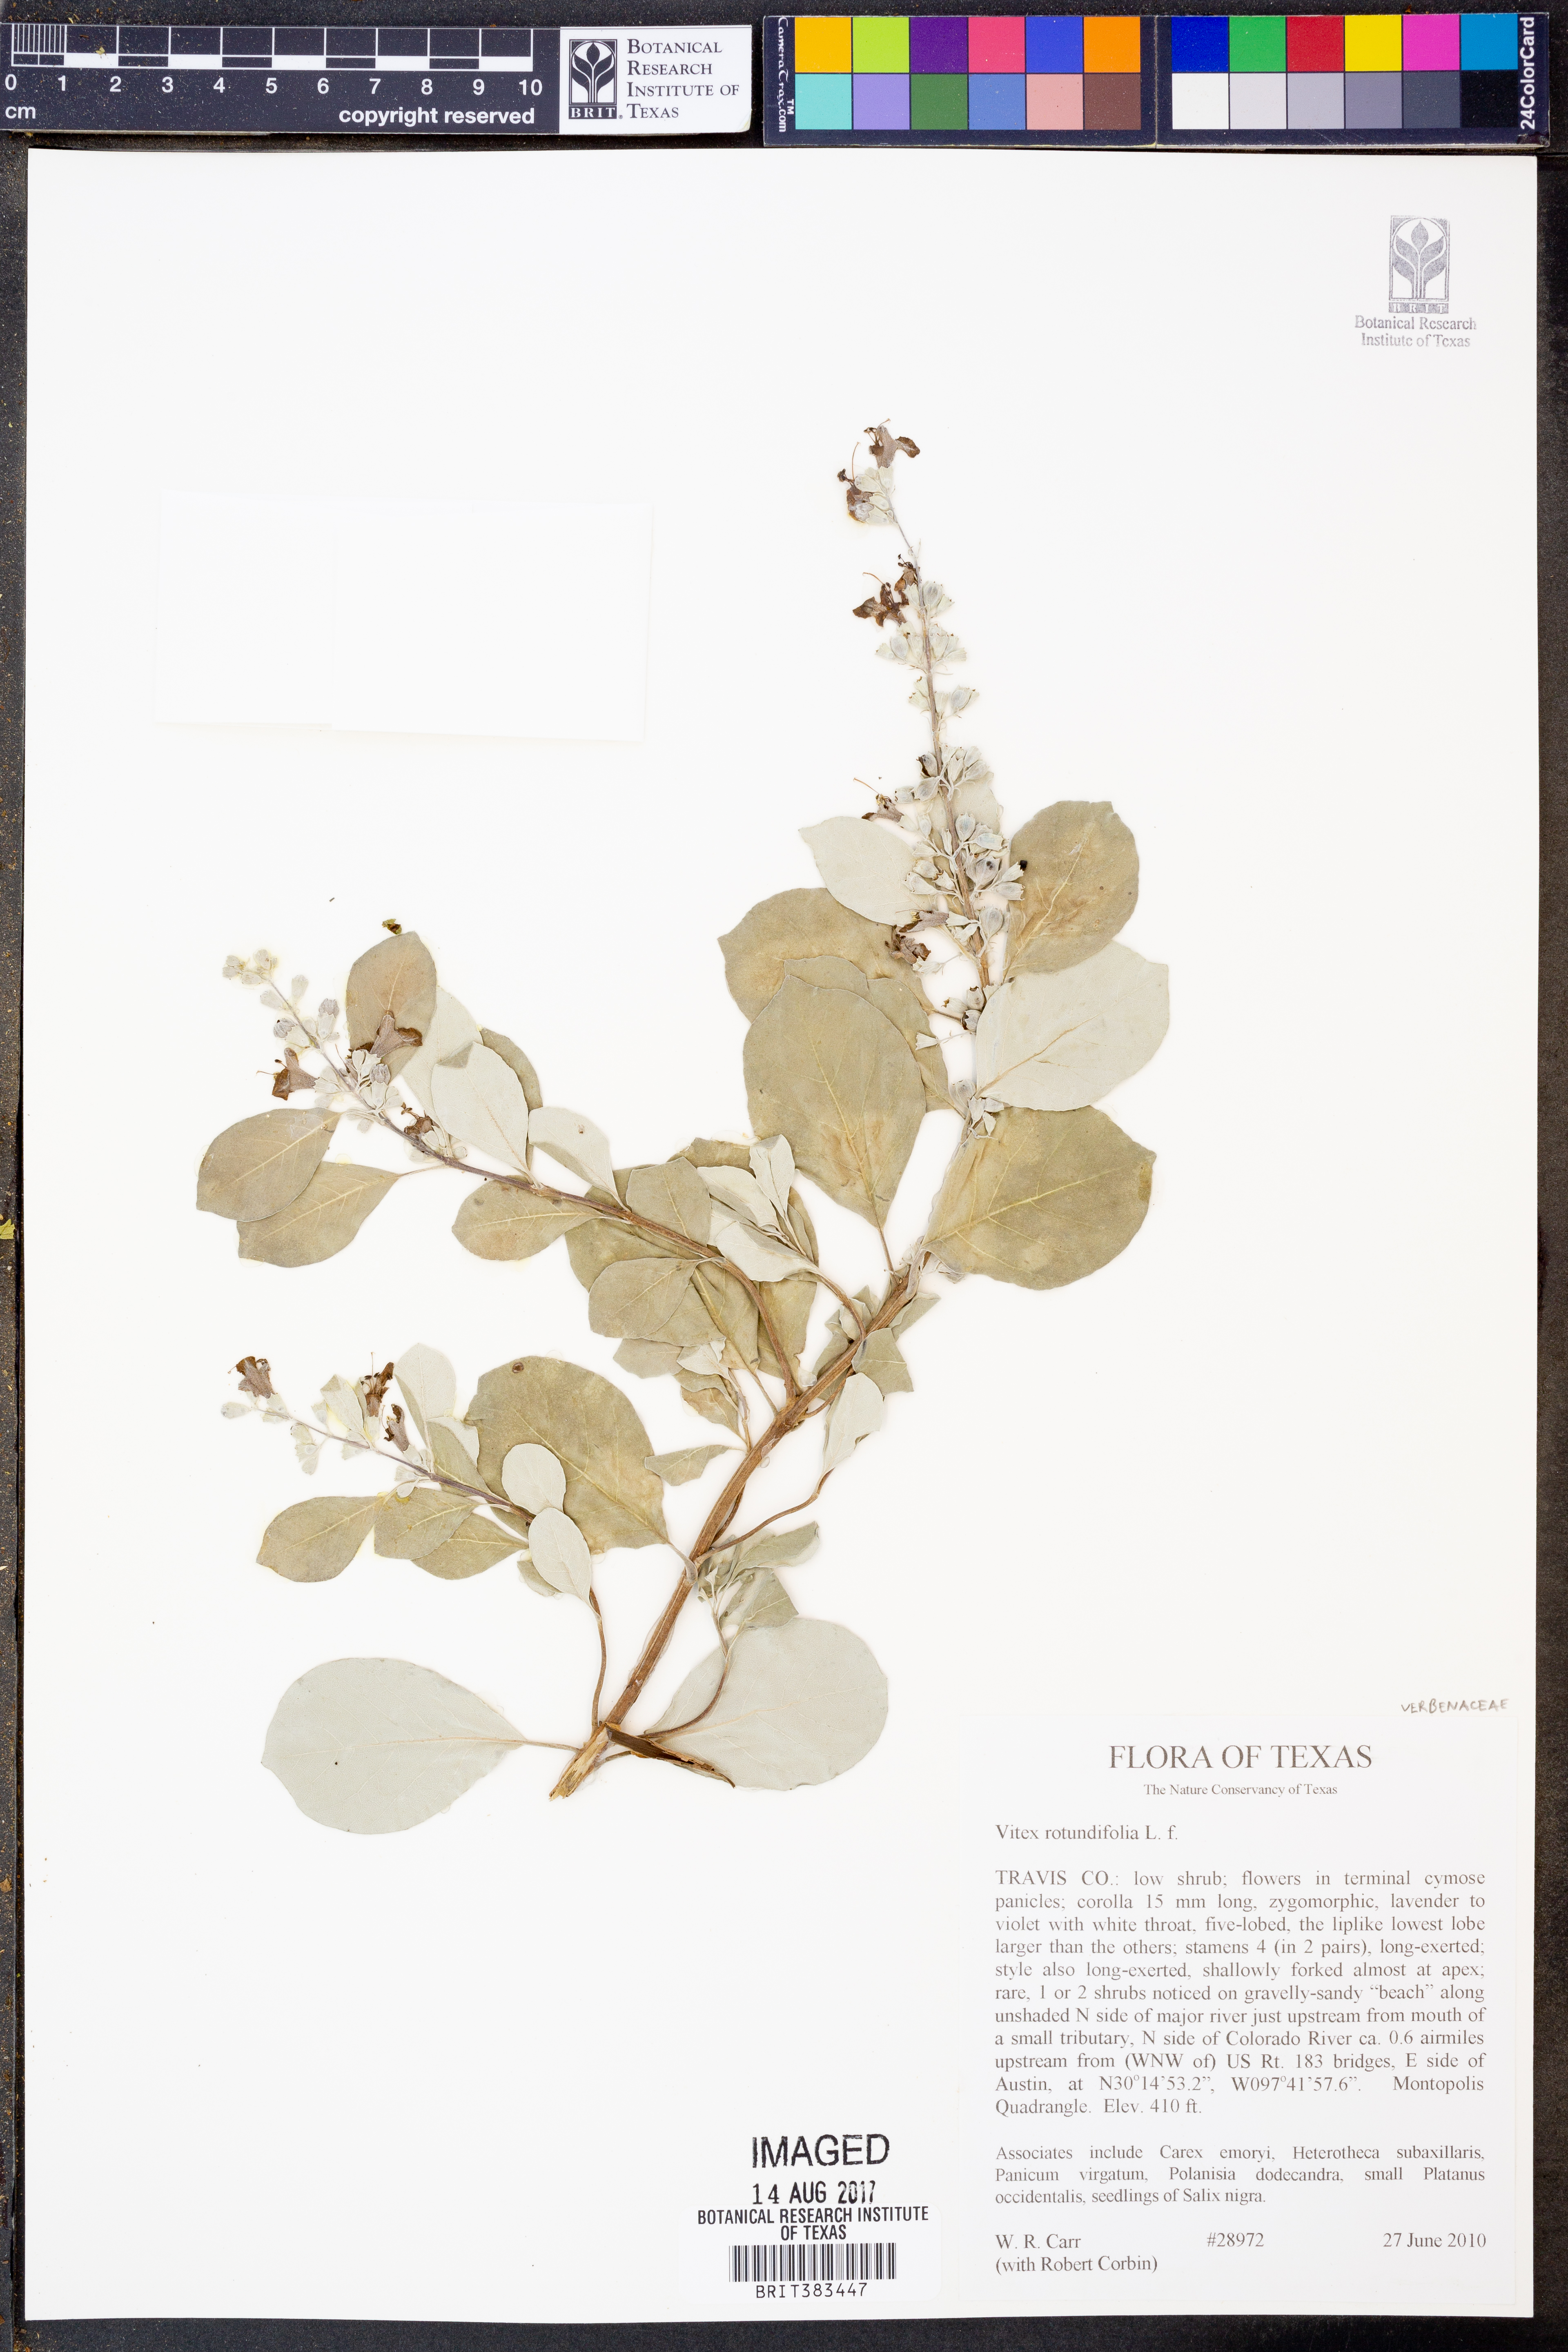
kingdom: Plantae
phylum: Tracheophyta
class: Magnoliopsida
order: Lamiales
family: Lamiaceae
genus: Vitex
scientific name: Vitex rotundifolia
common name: Beach vitex
